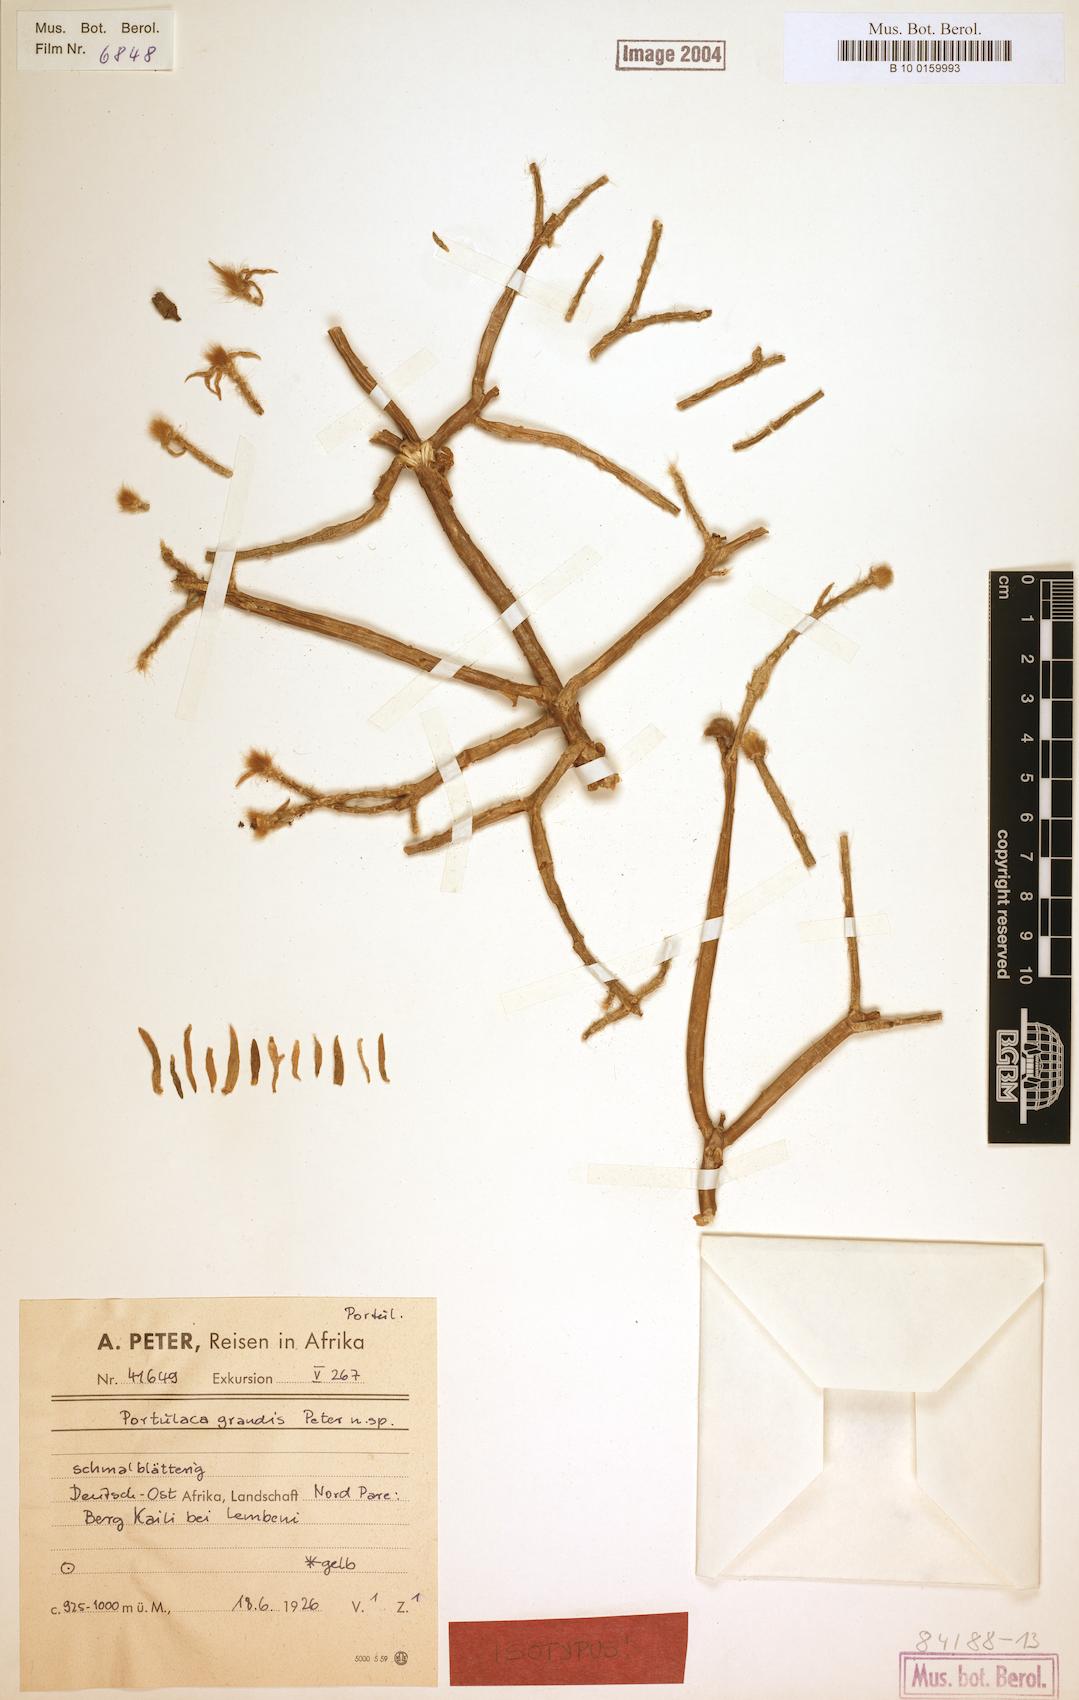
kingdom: Plantae
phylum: Tracheophyta
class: Magnoliopsida
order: Caryophyllales
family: Portulacaceae
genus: Portulaca
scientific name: Portulaca grandis
